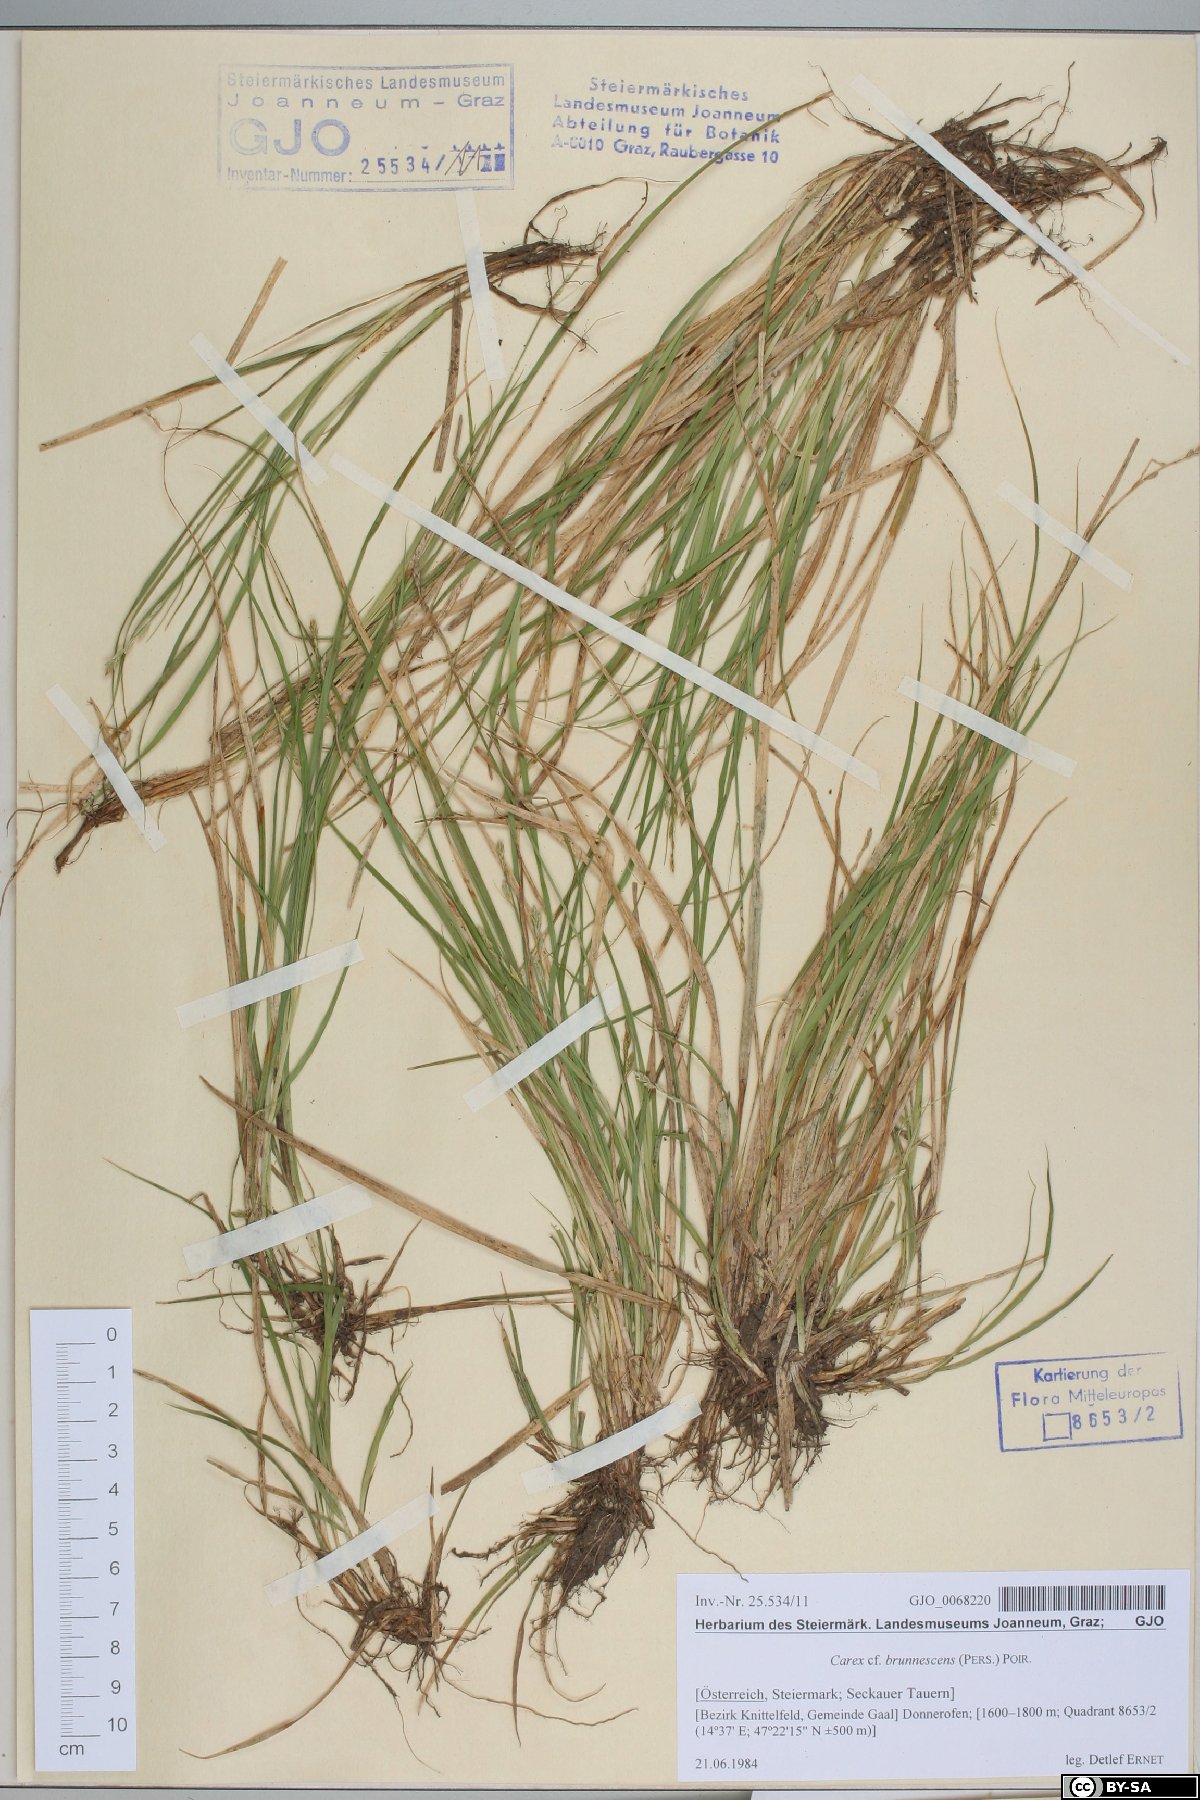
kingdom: Plantae
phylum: Tracheophyta
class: Liliopsida
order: Poales
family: Cyperaceae
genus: Carex
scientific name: Carex brunnescens
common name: Brown sedge
